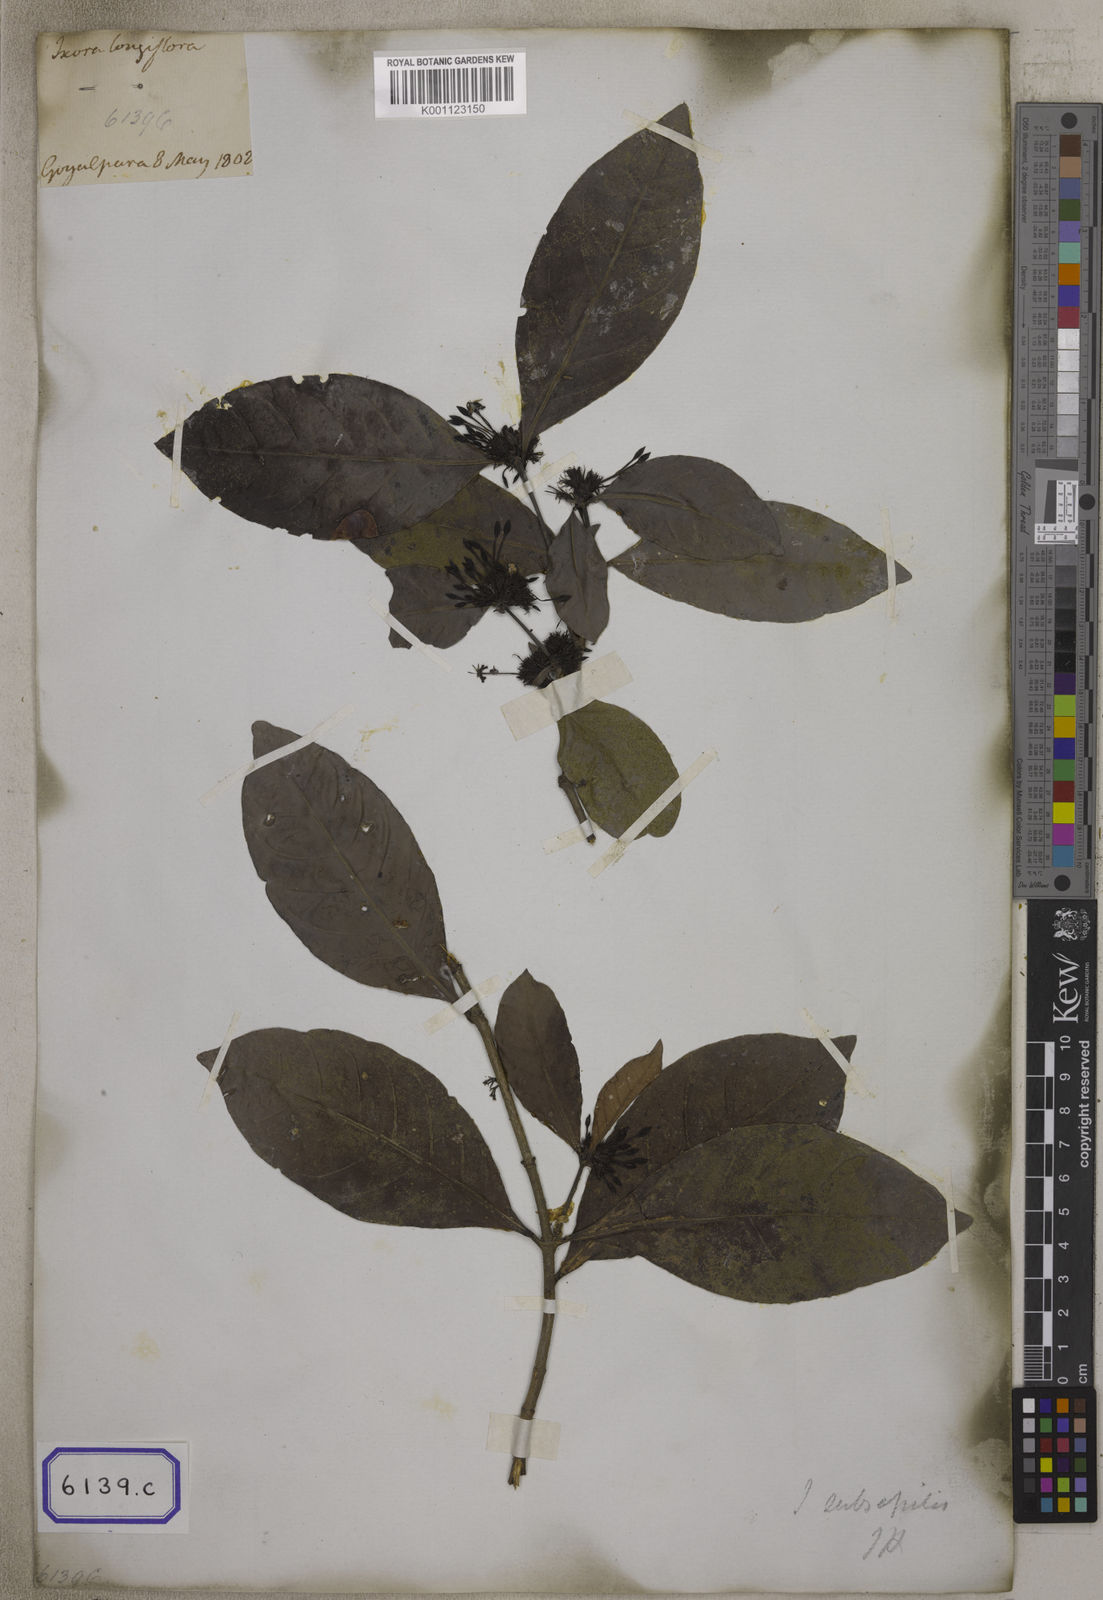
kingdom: Plantae
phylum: Tracheophyta
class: Magnoliopsida
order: Gentianales
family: Rubiaceae
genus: Ixora
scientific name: Ixora
